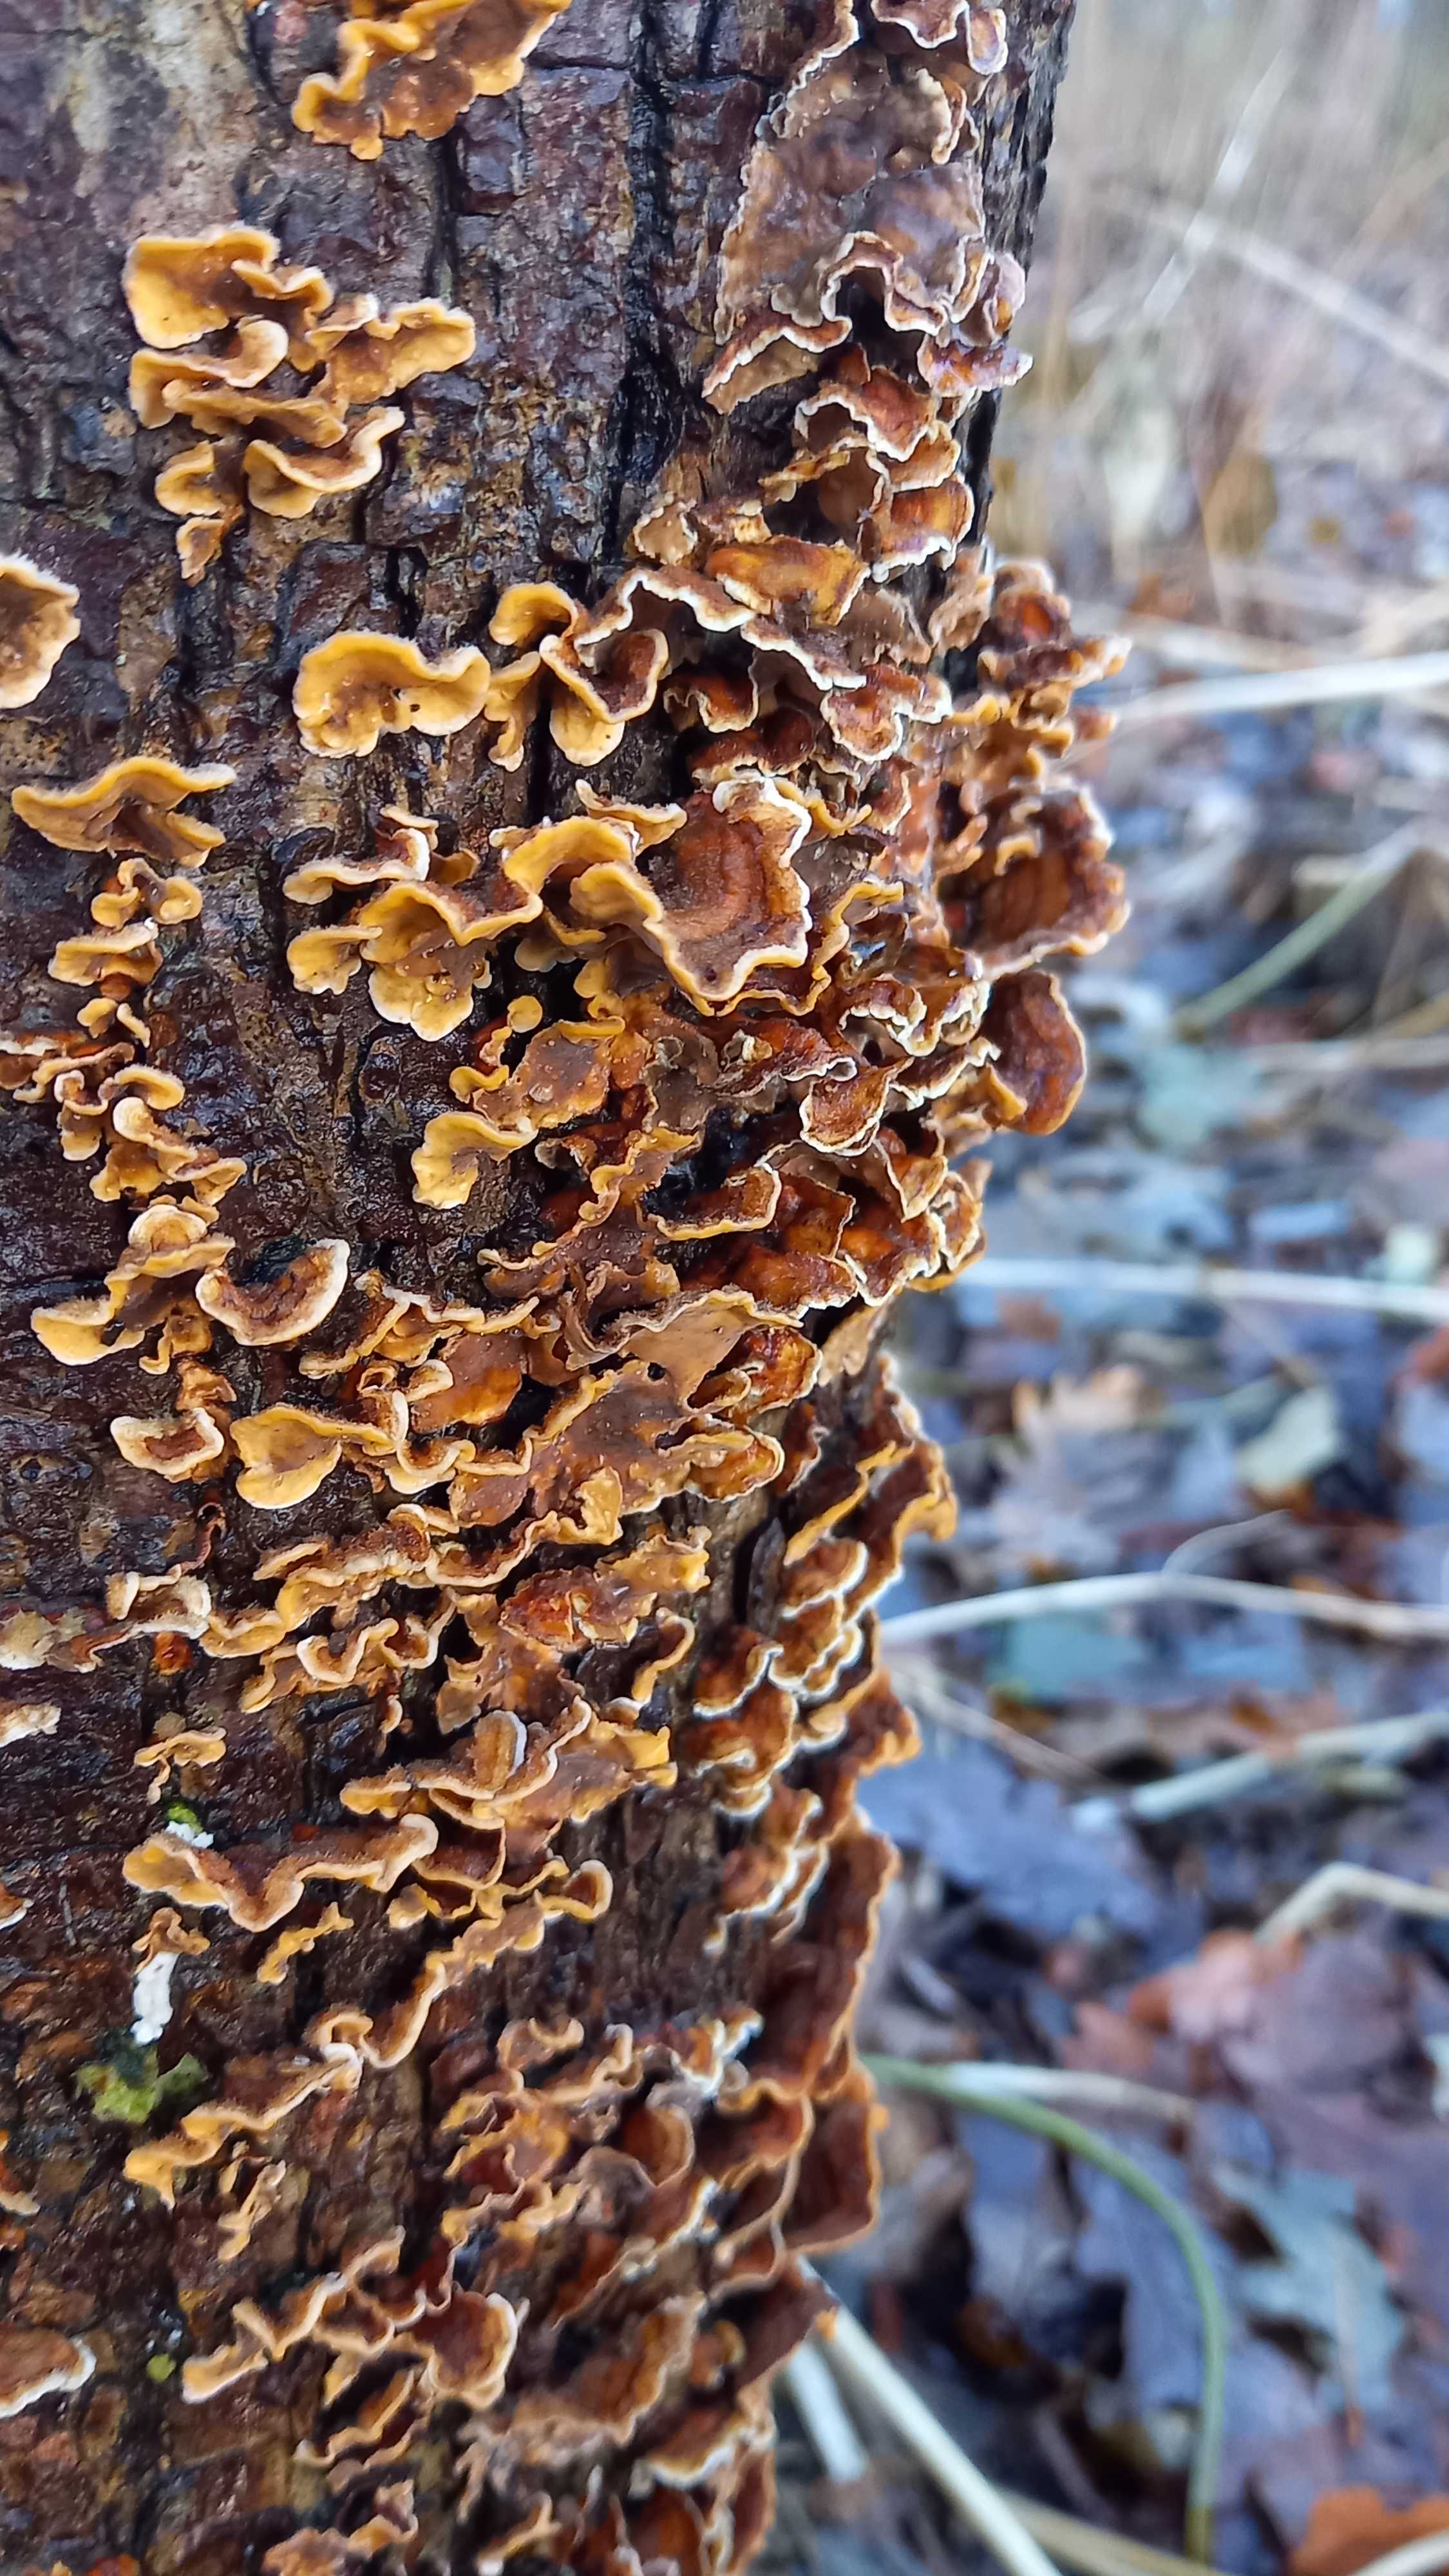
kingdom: Fungi
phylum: Basidiomycota
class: Agaricomycetes
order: Russulales
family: Stereaceae
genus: Stereum
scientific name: Stereum hirsutum
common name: håret lædersvamp
